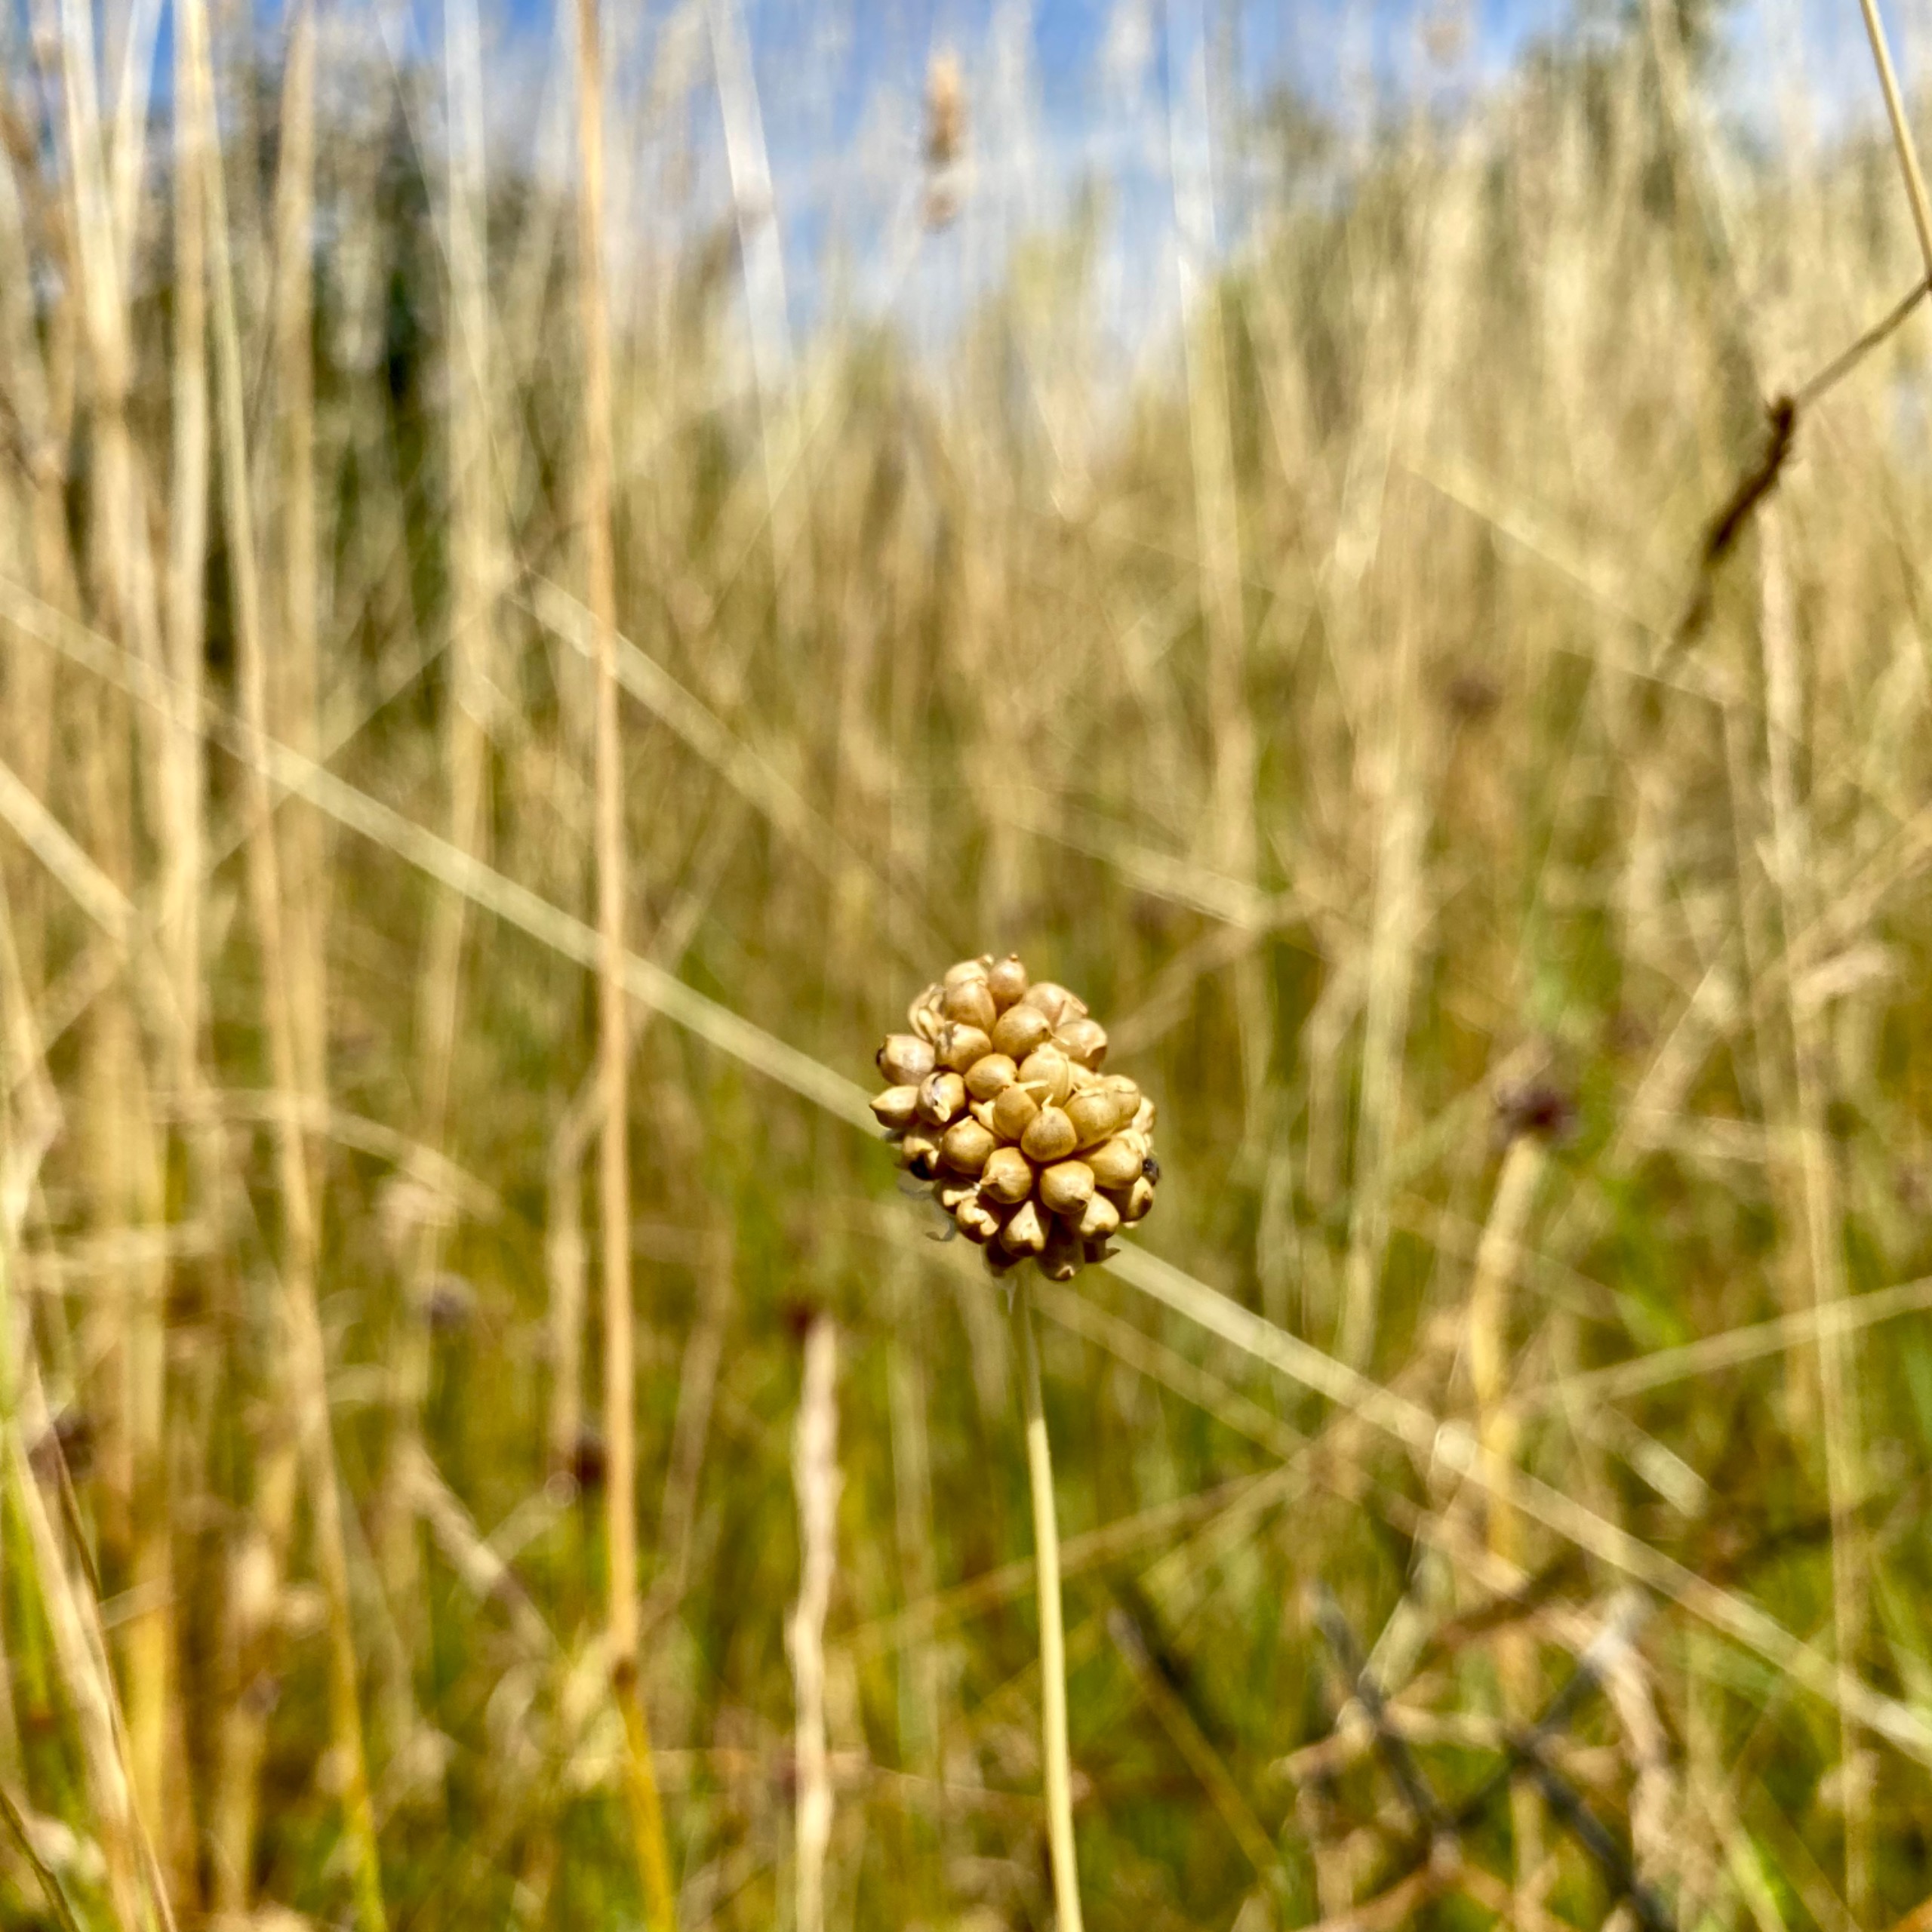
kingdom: Plantae
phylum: Tracheophyta
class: Liliopsida
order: Asparagales
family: Amaryllidaceae
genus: Allium
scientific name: Allium vineale
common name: Sand-løg
